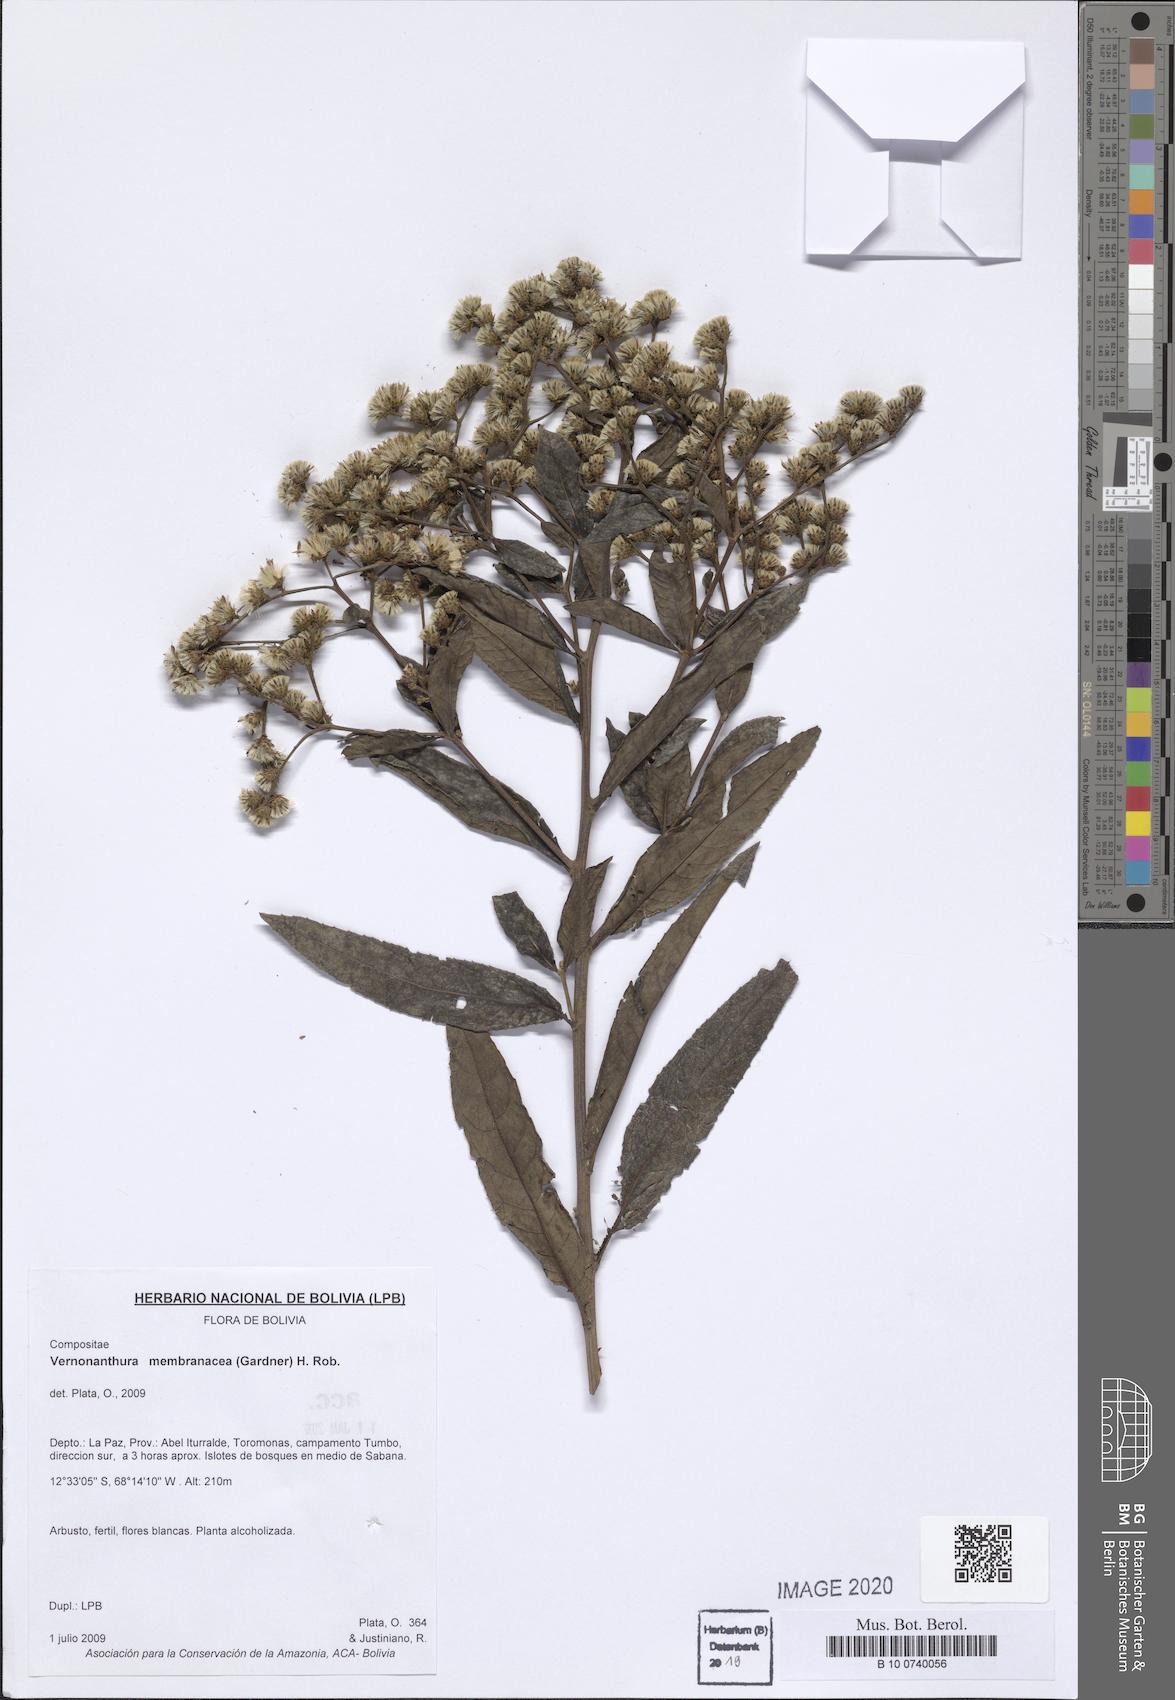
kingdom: Plantae
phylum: Tracheophyta
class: Magnoliopsida
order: Asterales
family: Asteraceae
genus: Vernonanthura
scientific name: Vernonanthura membranacea
